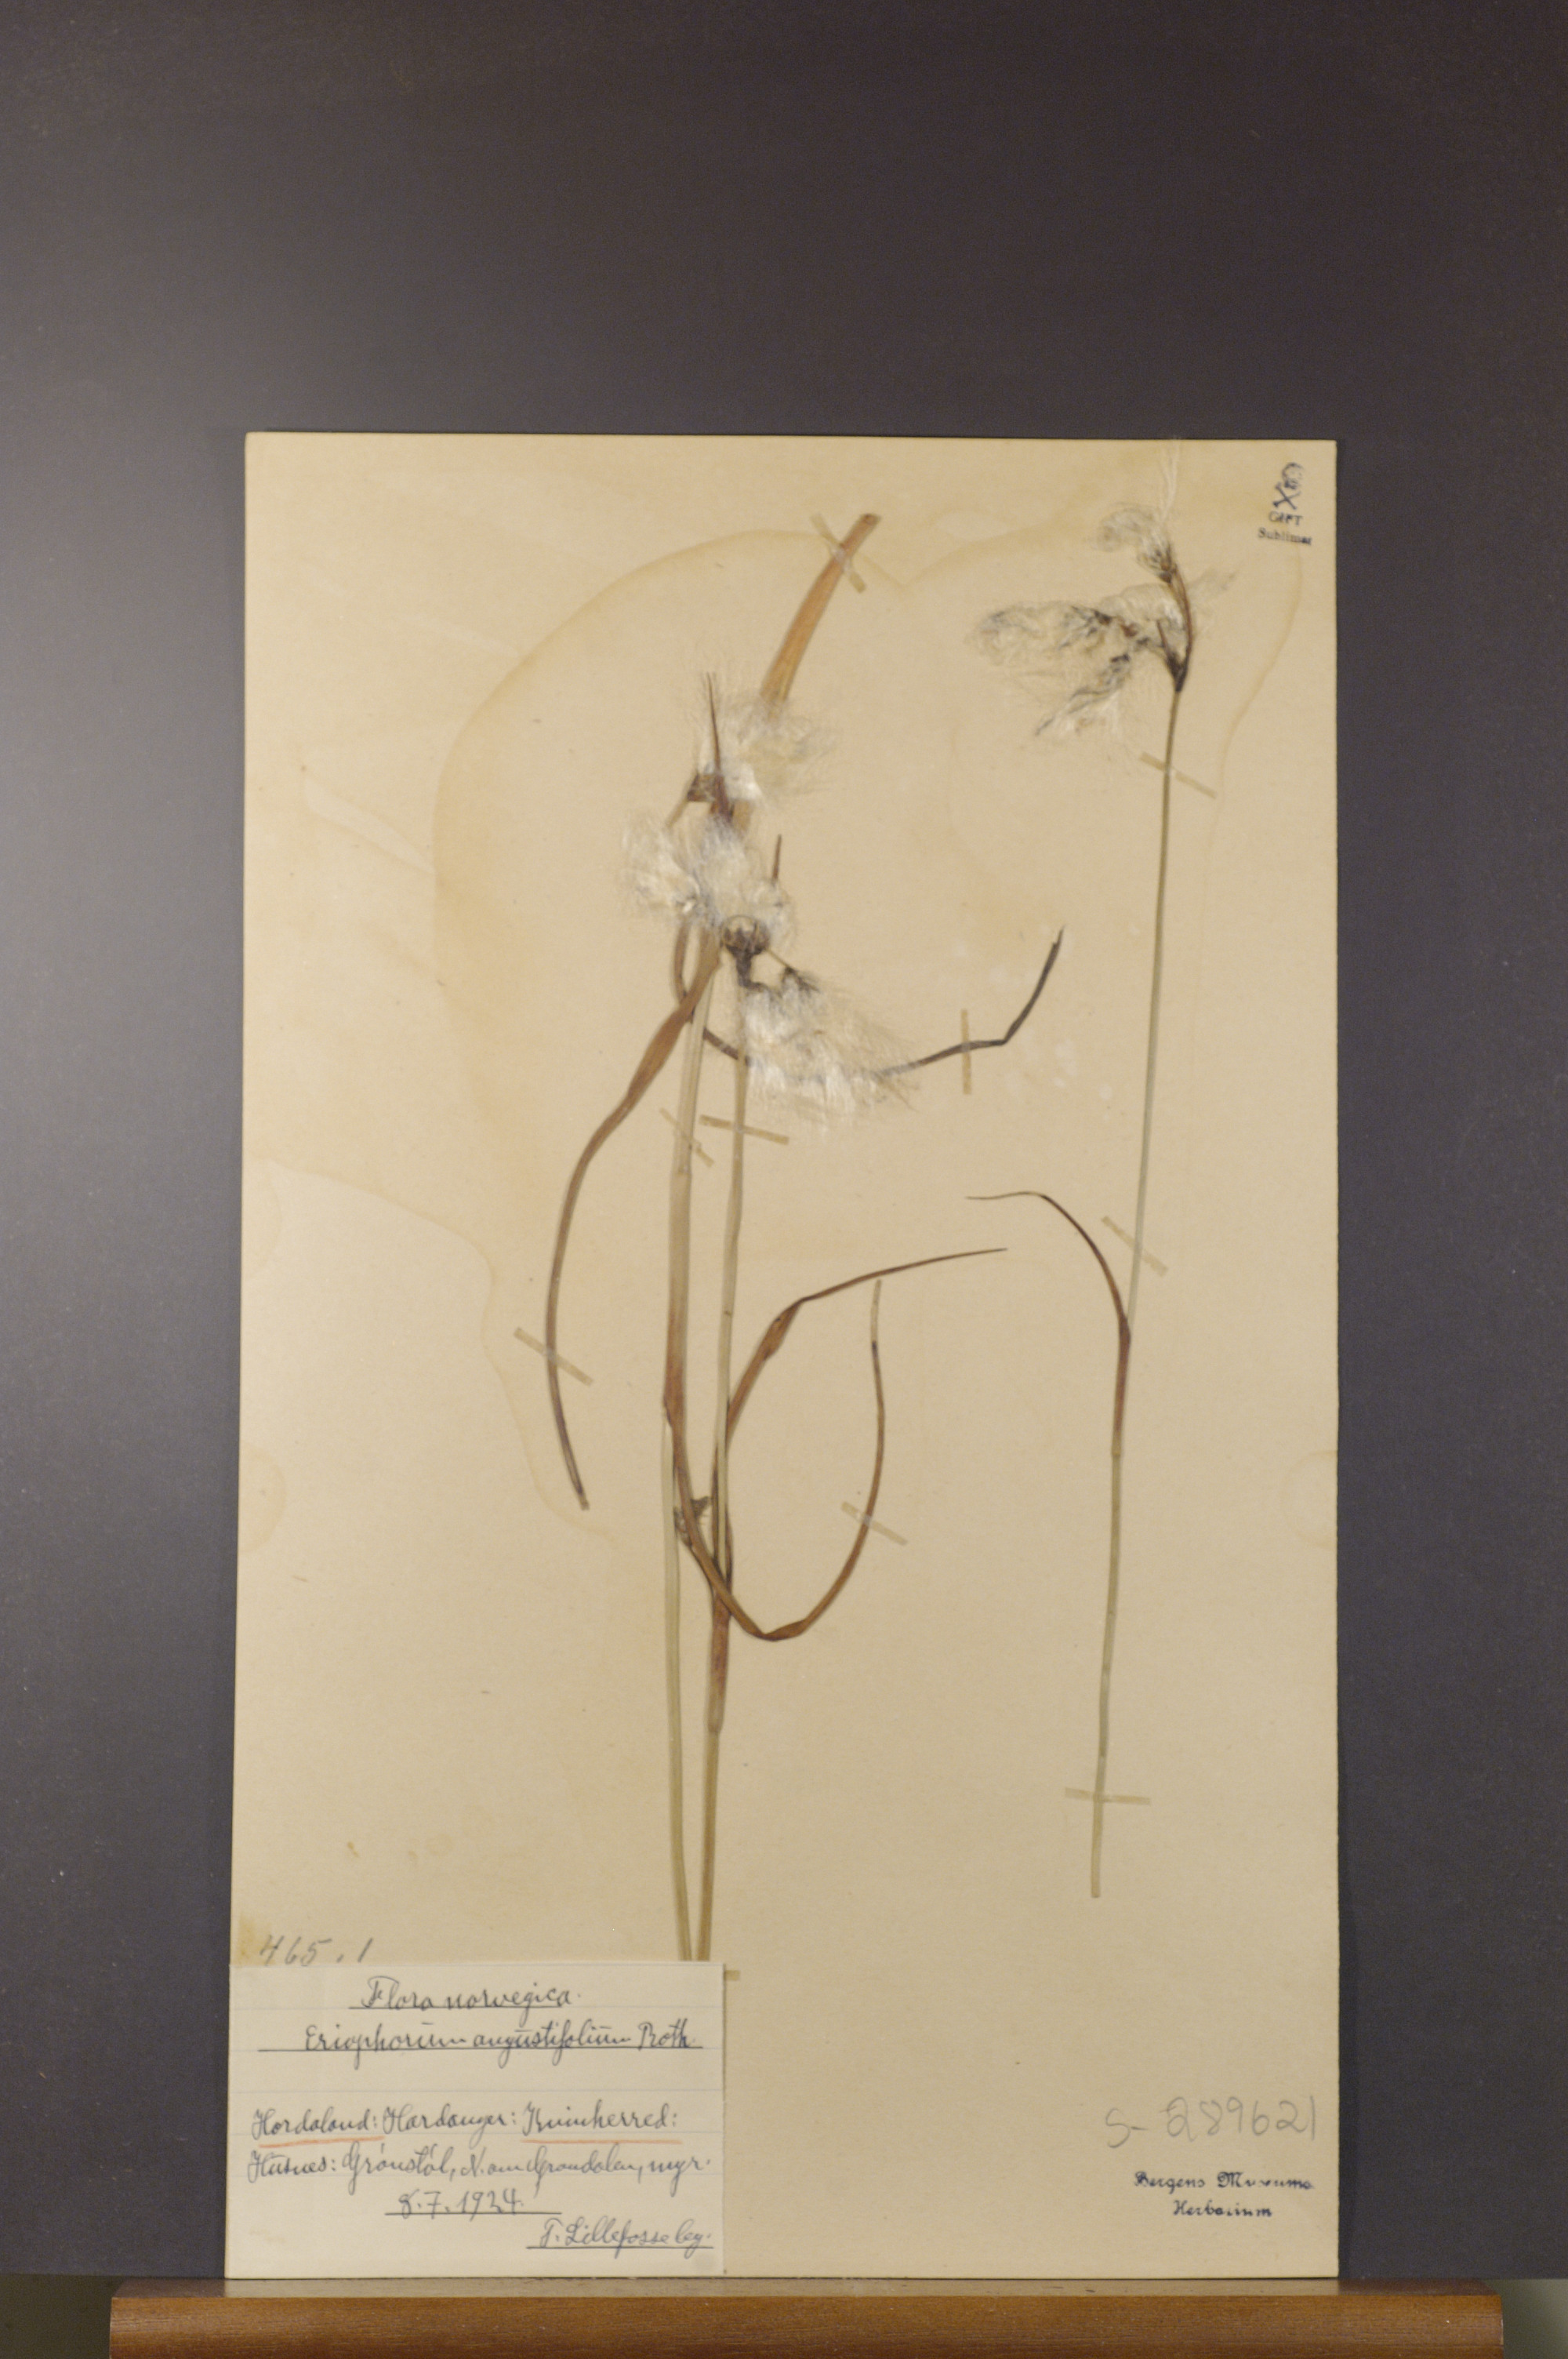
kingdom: Plantae
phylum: Tracheophyta
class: Liliopsida
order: Poales
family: Cyperaceae
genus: Eriophorum
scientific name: Eriophorum angustifolium
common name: Common cottongrass
